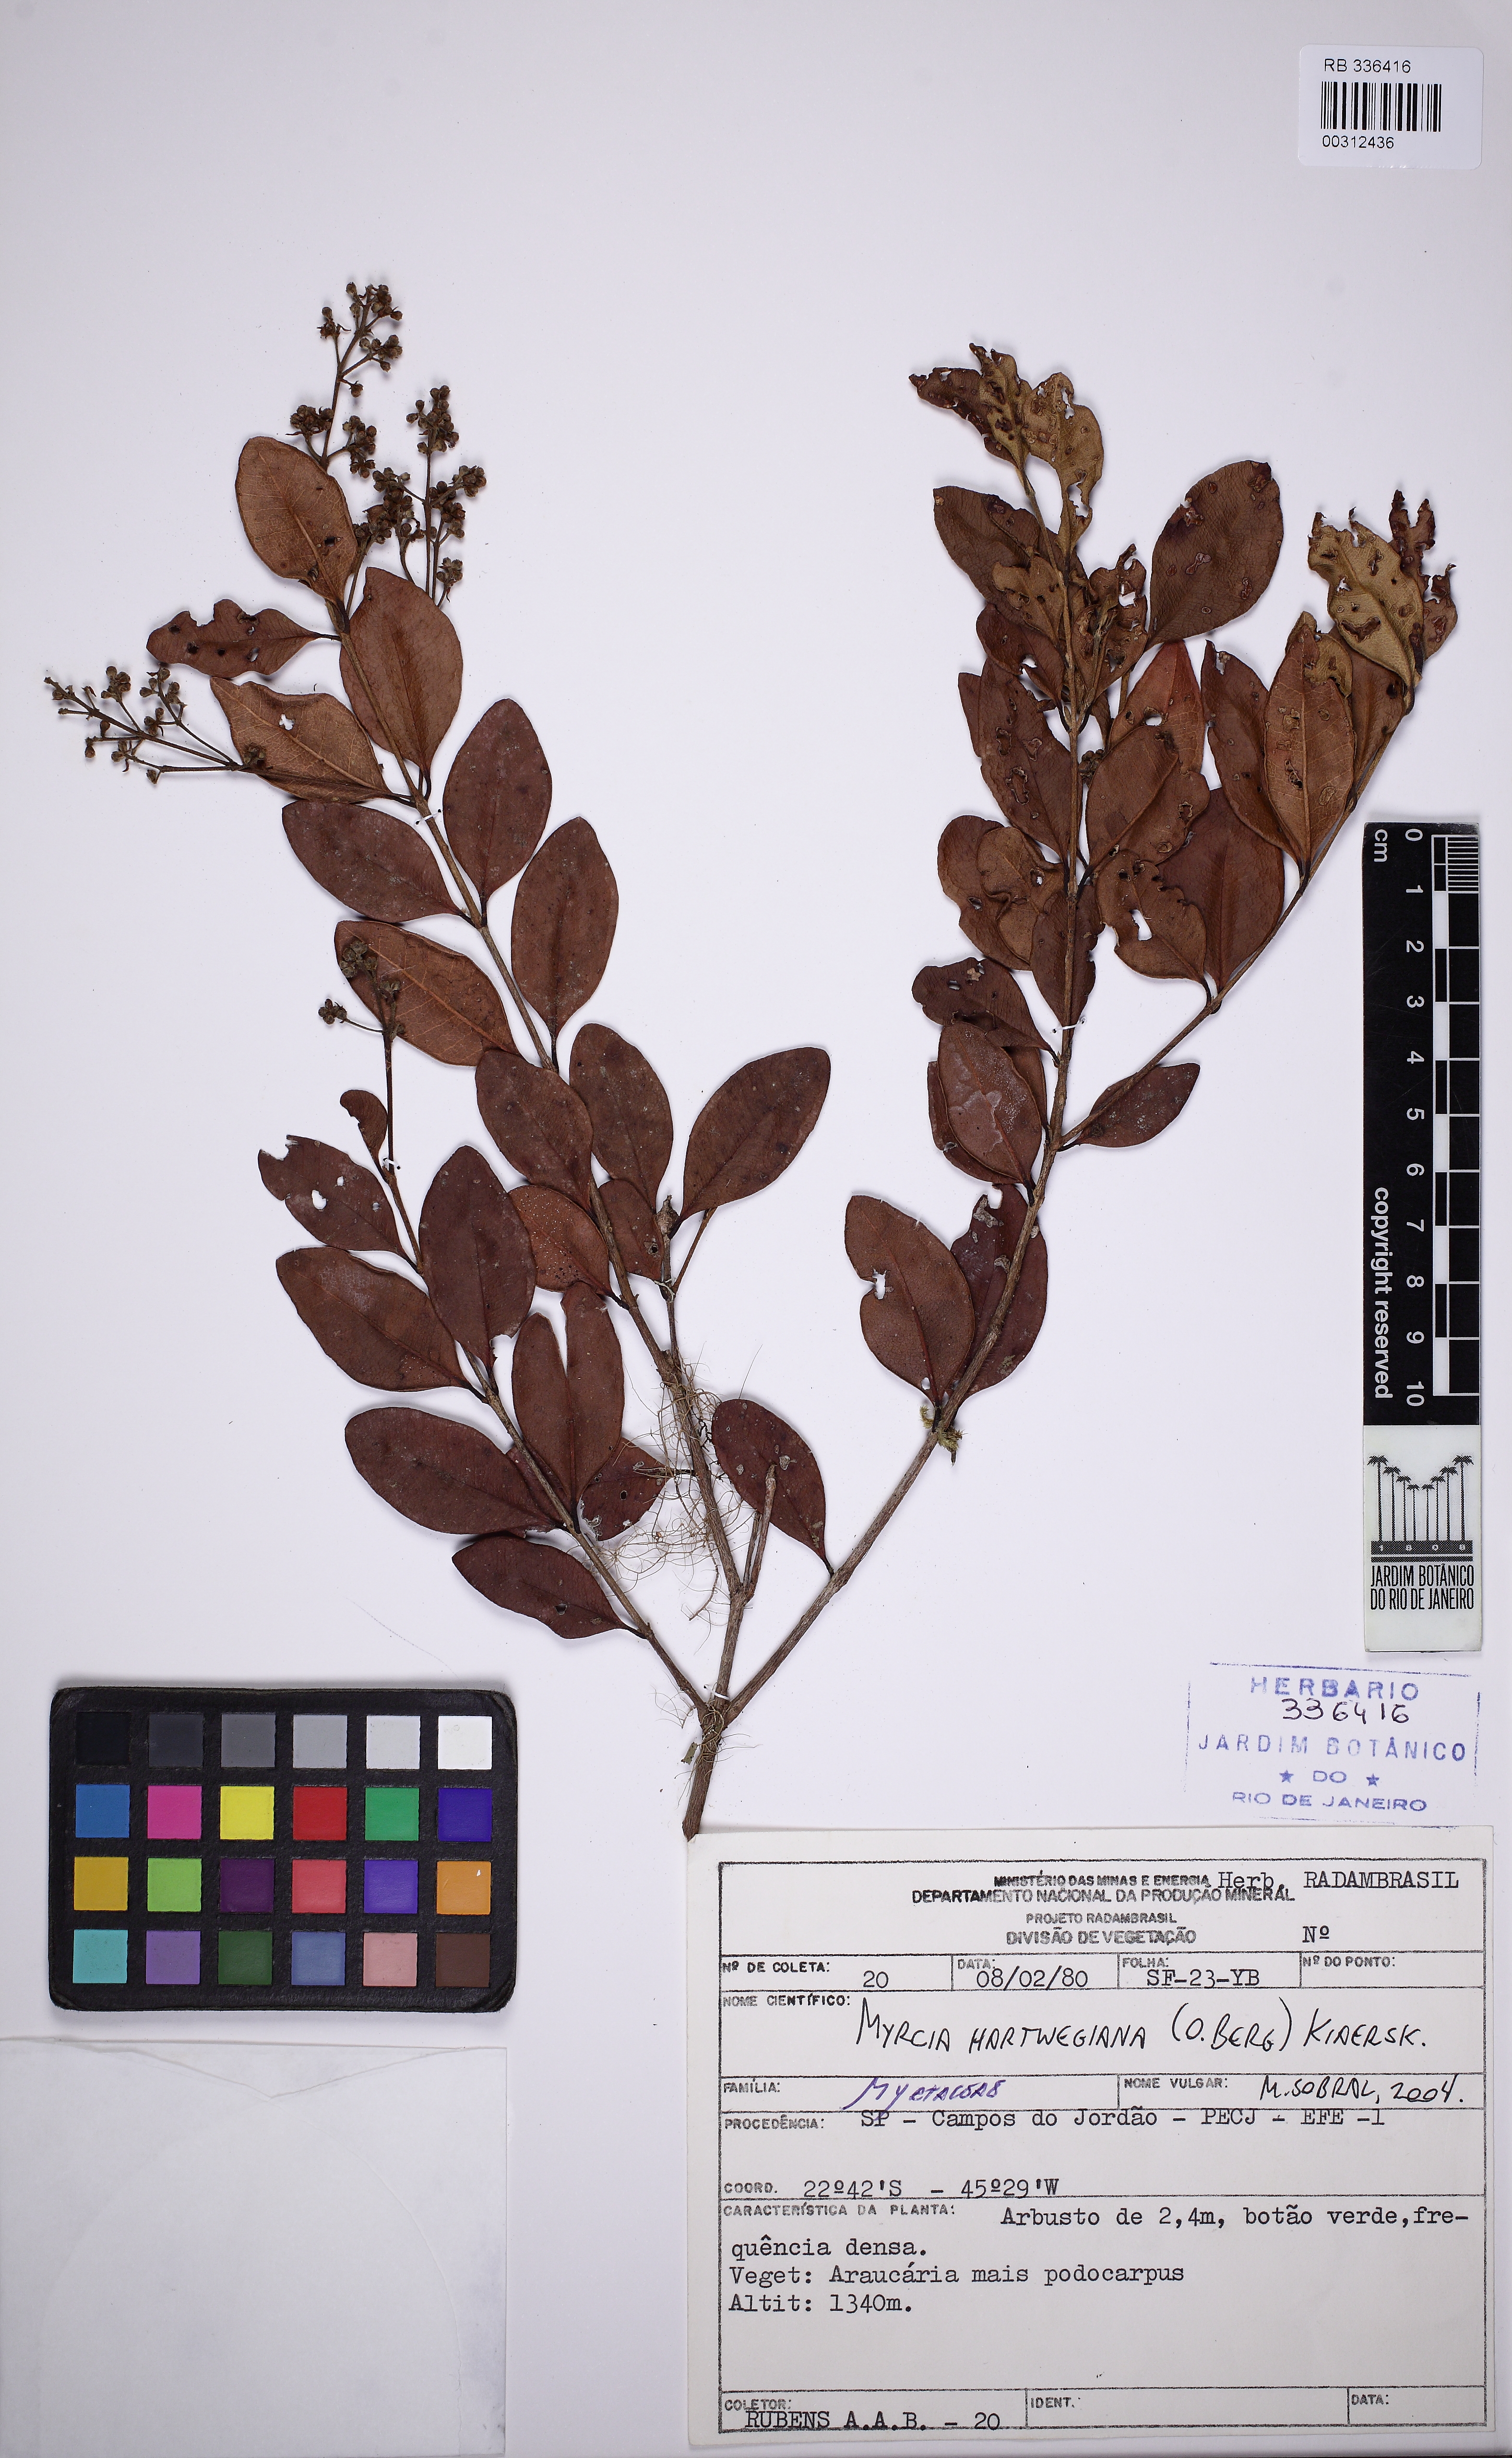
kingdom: Plantae
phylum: Tracheophyta
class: Magnoliopsida
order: Myrtales
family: Myrtaceae
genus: Myrcia
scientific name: Myrcia hartwegiana
